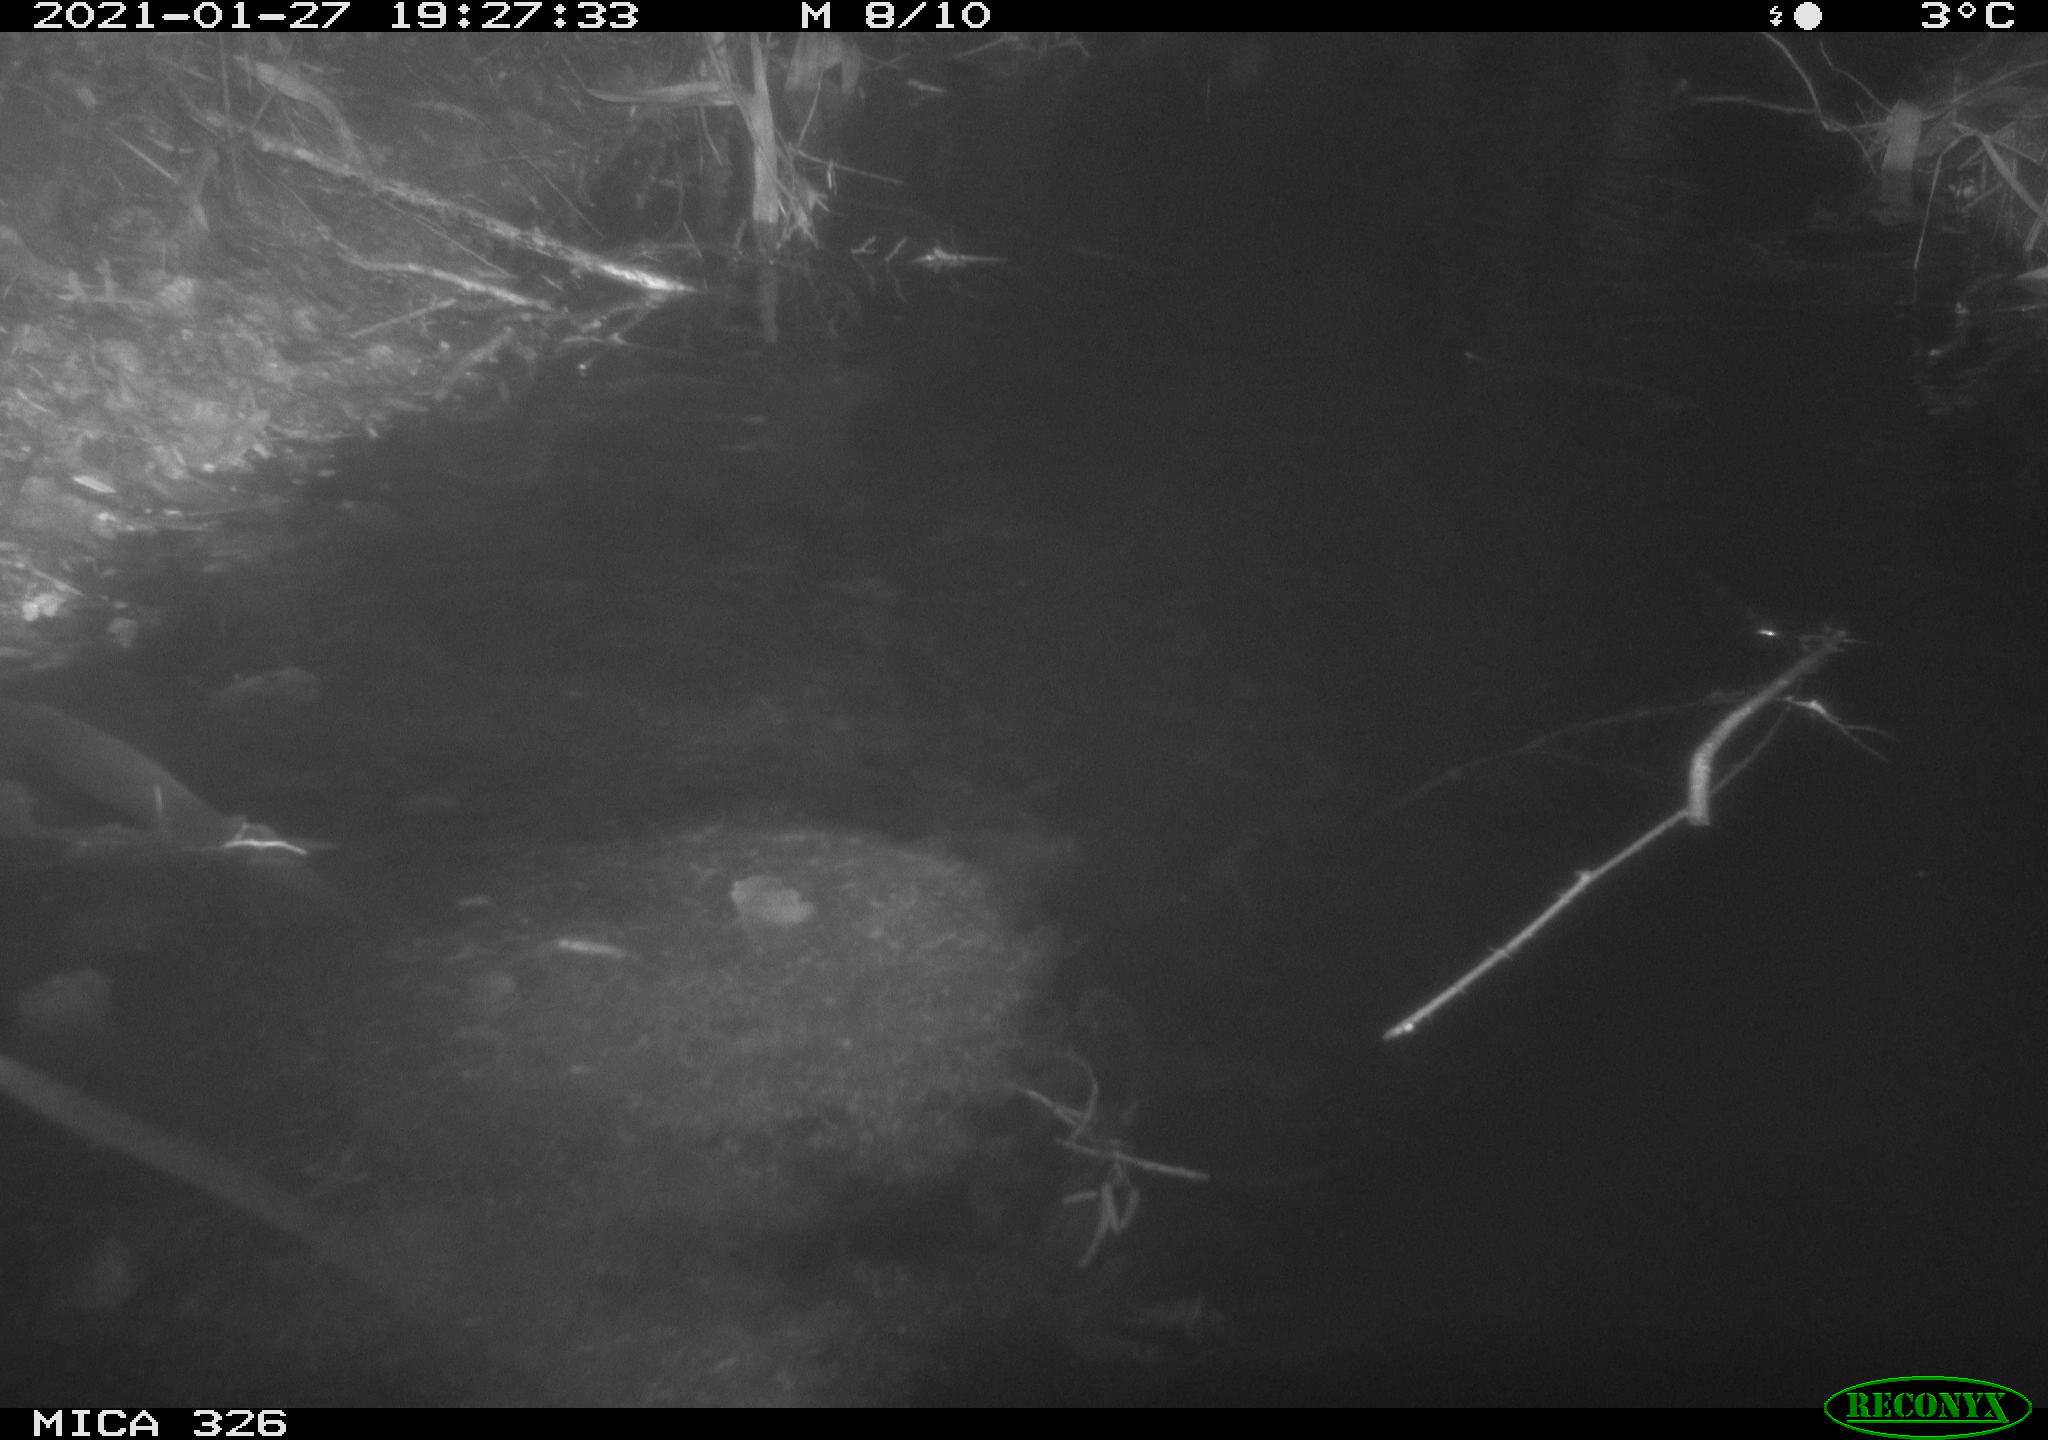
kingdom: Animalia
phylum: Chordata
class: Mammalia
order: Carnivora
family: Mustelidae
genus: Lutra
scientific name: Lutra lutra
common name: European otter
